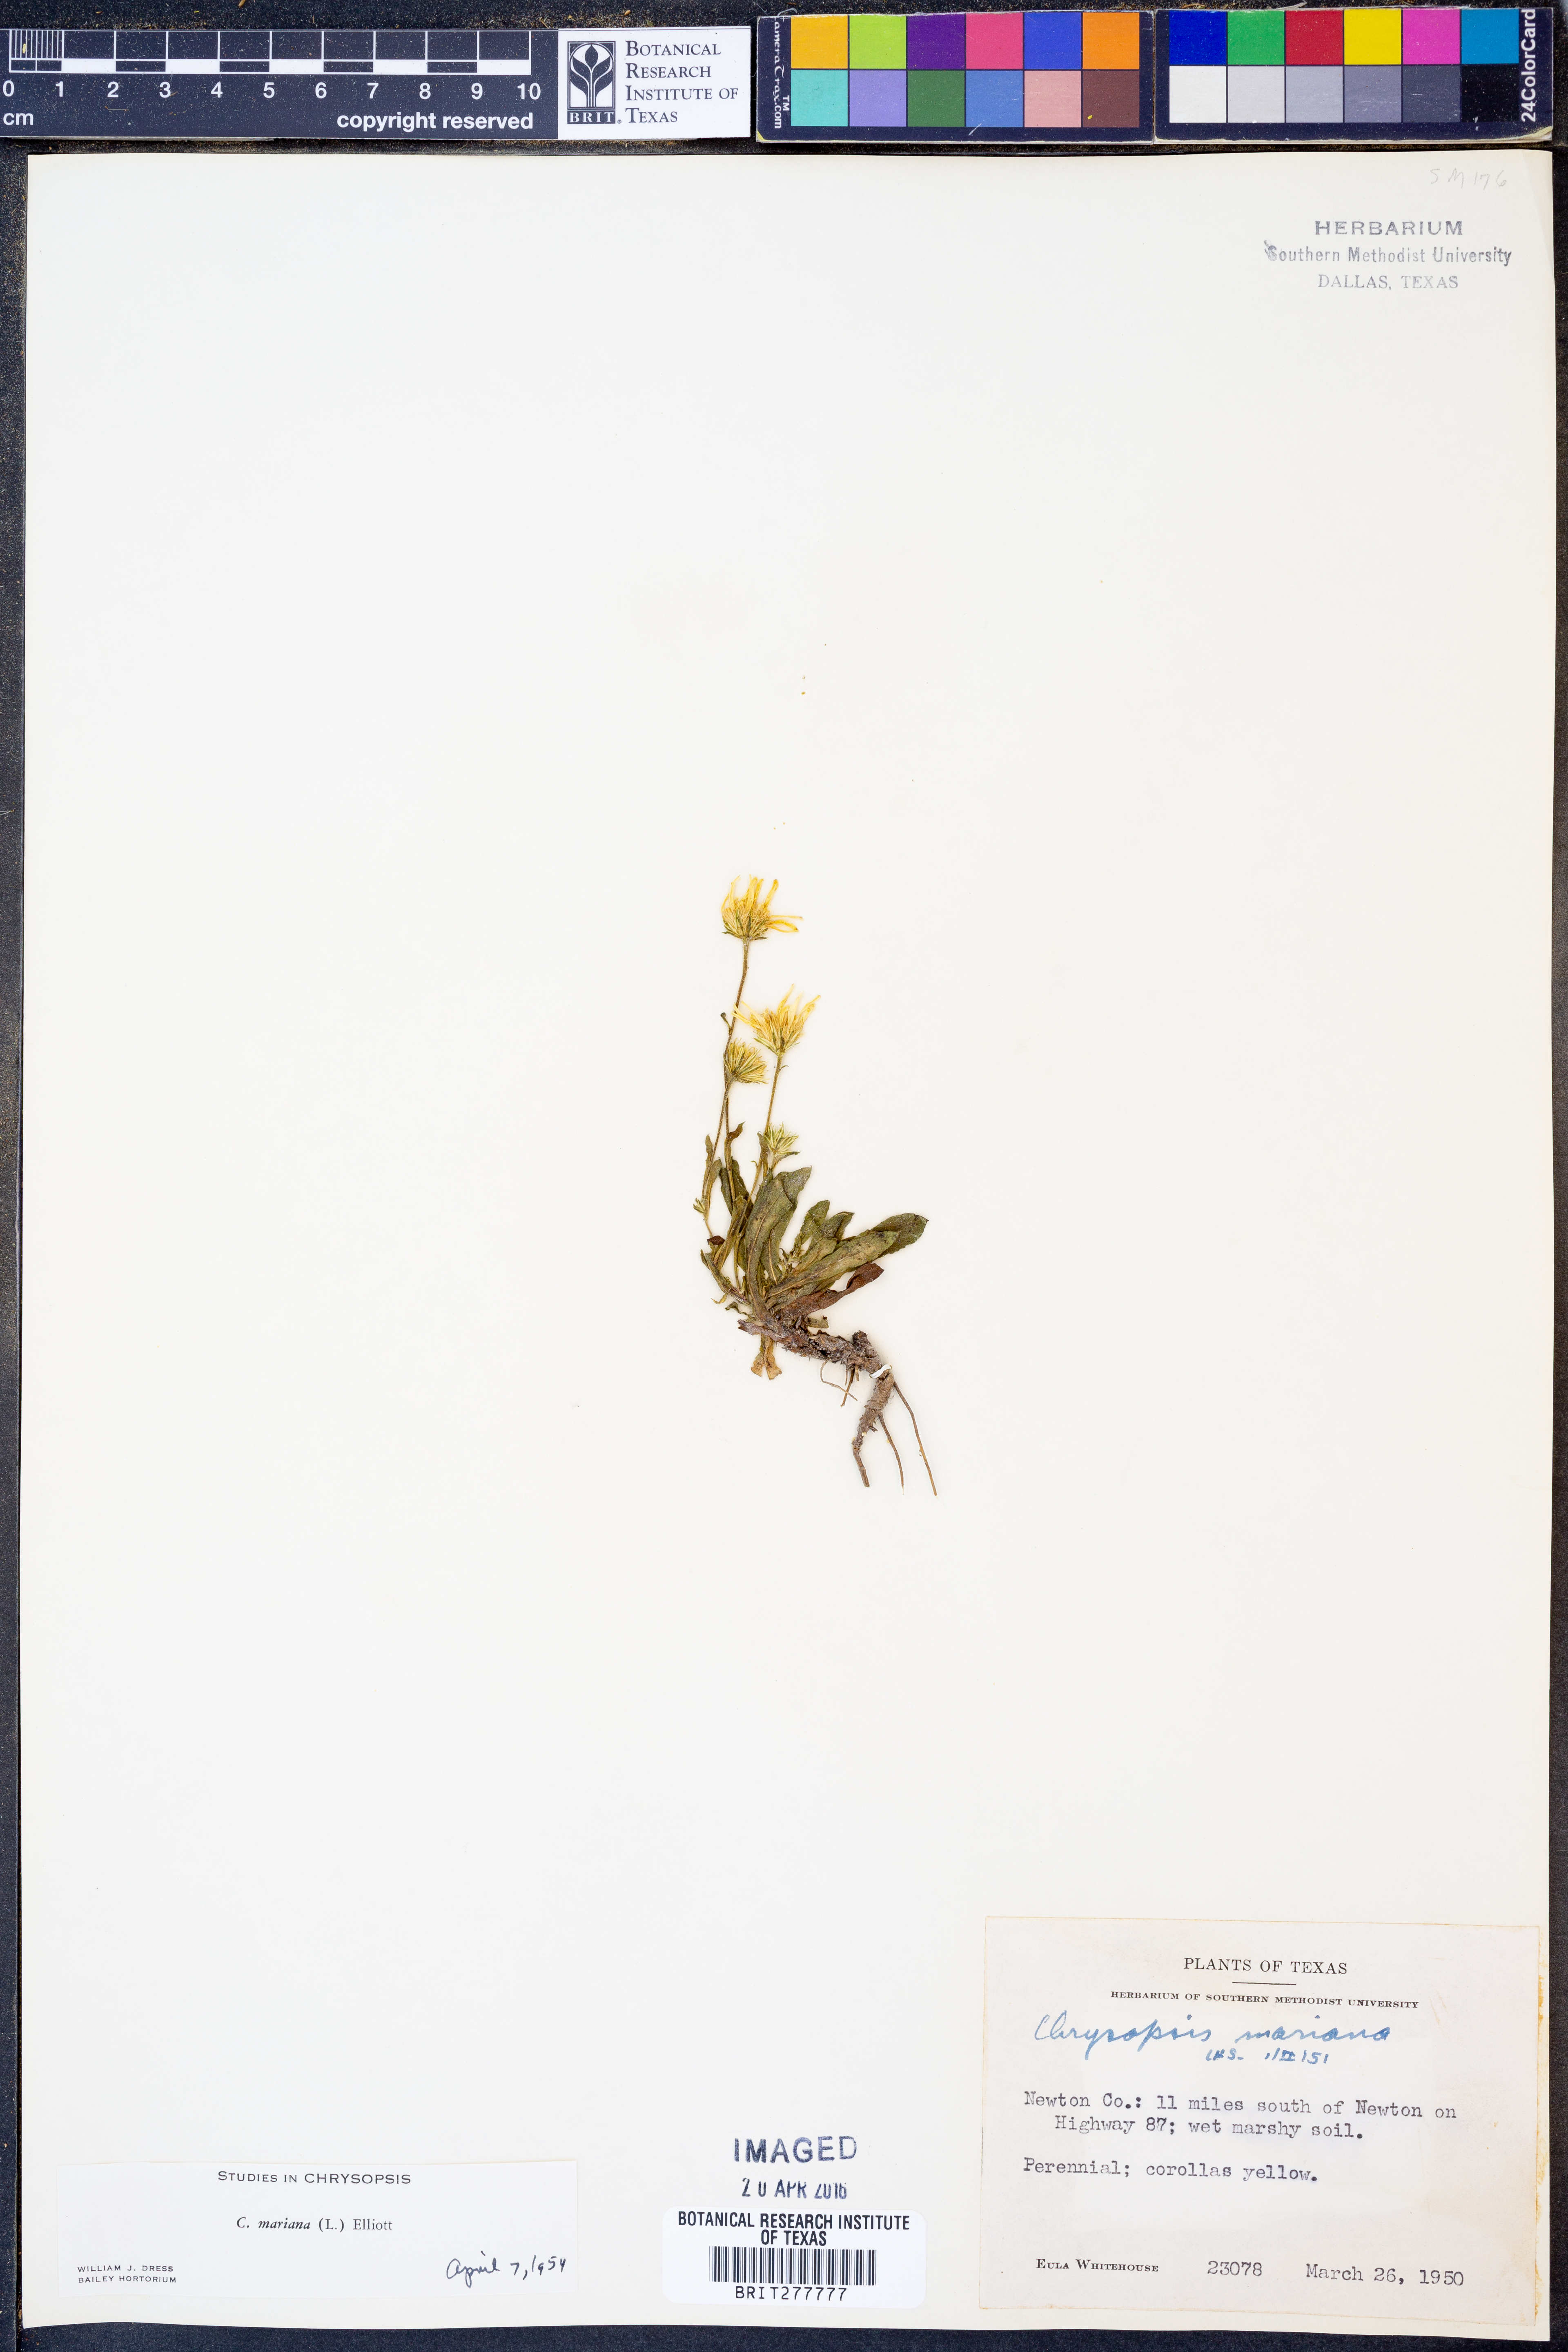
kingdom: Plantae
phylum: Tracheophyta
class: Magnoliopsida
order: Asterales
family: Asteraceae
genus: Chrysopsis
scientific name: Chrysopsis mariana
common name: Maryland golden-aster
